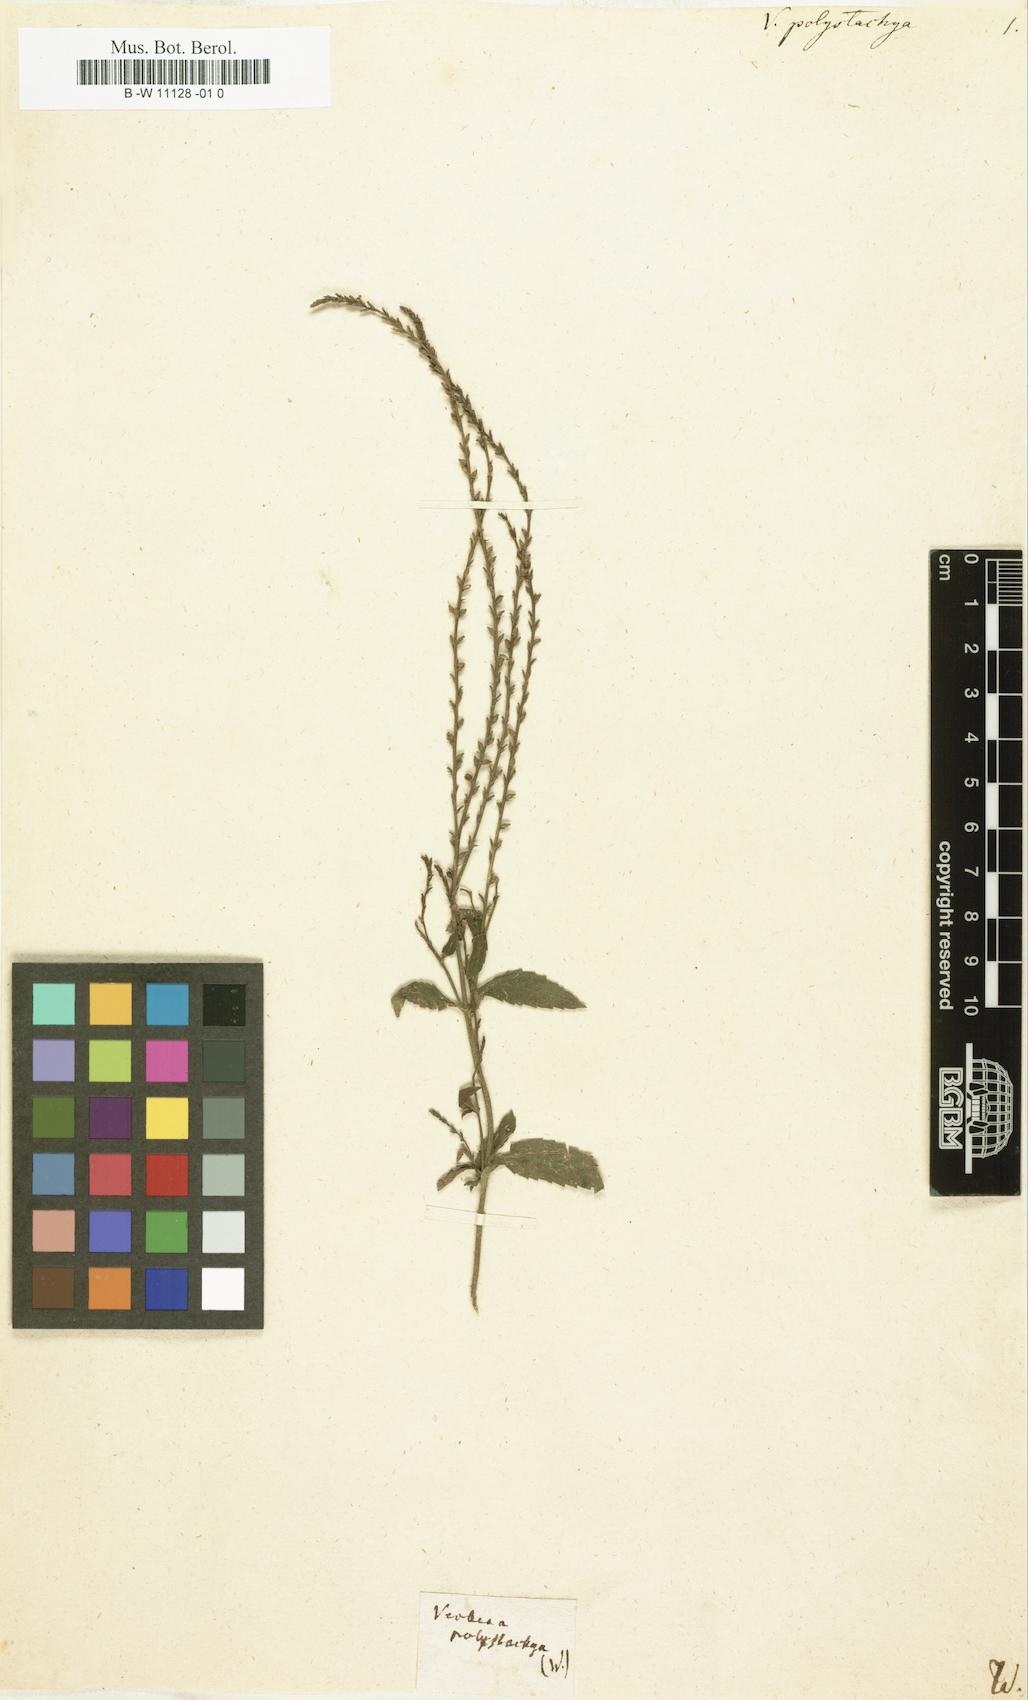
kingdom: Plantae
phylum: Tracheophyta
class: Magnoliopsida
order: Lamiales
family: Verbenaceae
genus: Verbena
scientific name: Verbena carolina
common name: Carolina vervain
